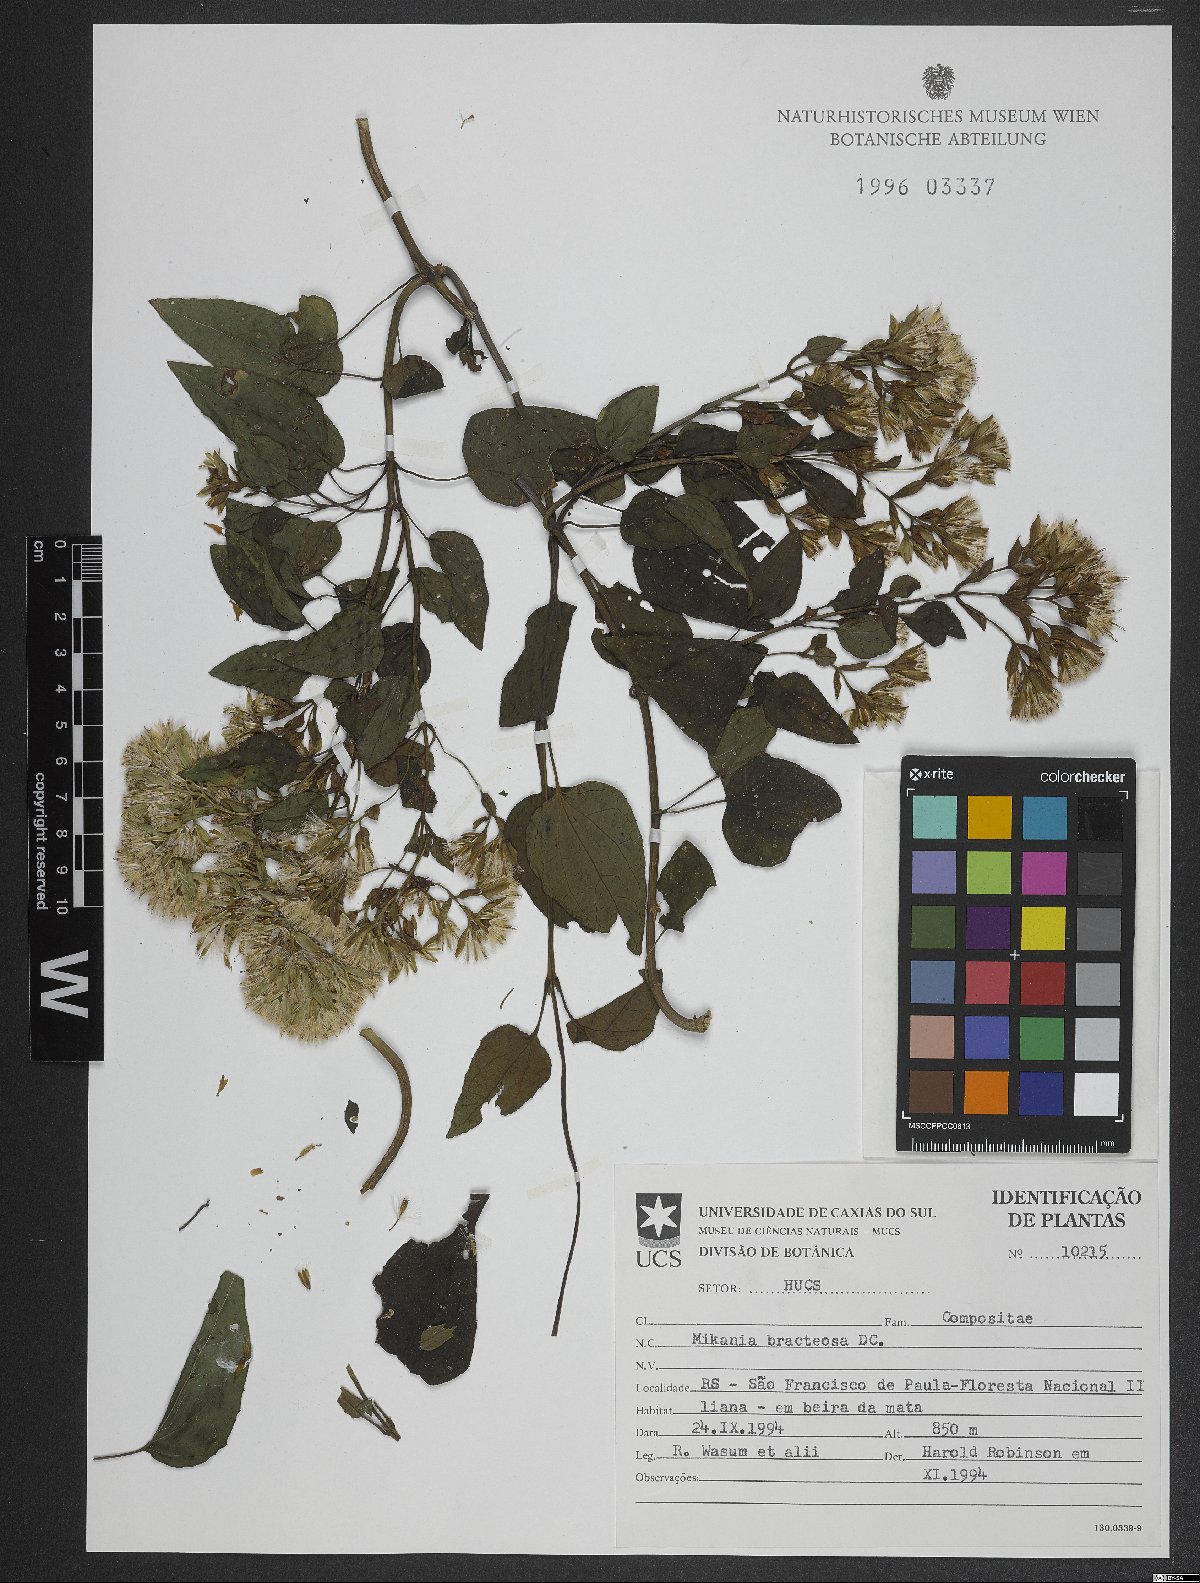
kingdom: Plantae
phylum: Tracheophyta
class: Magnoliopsida
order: Asterales
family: Asteraceae
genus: Mikania
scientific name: Mikania involucrata
